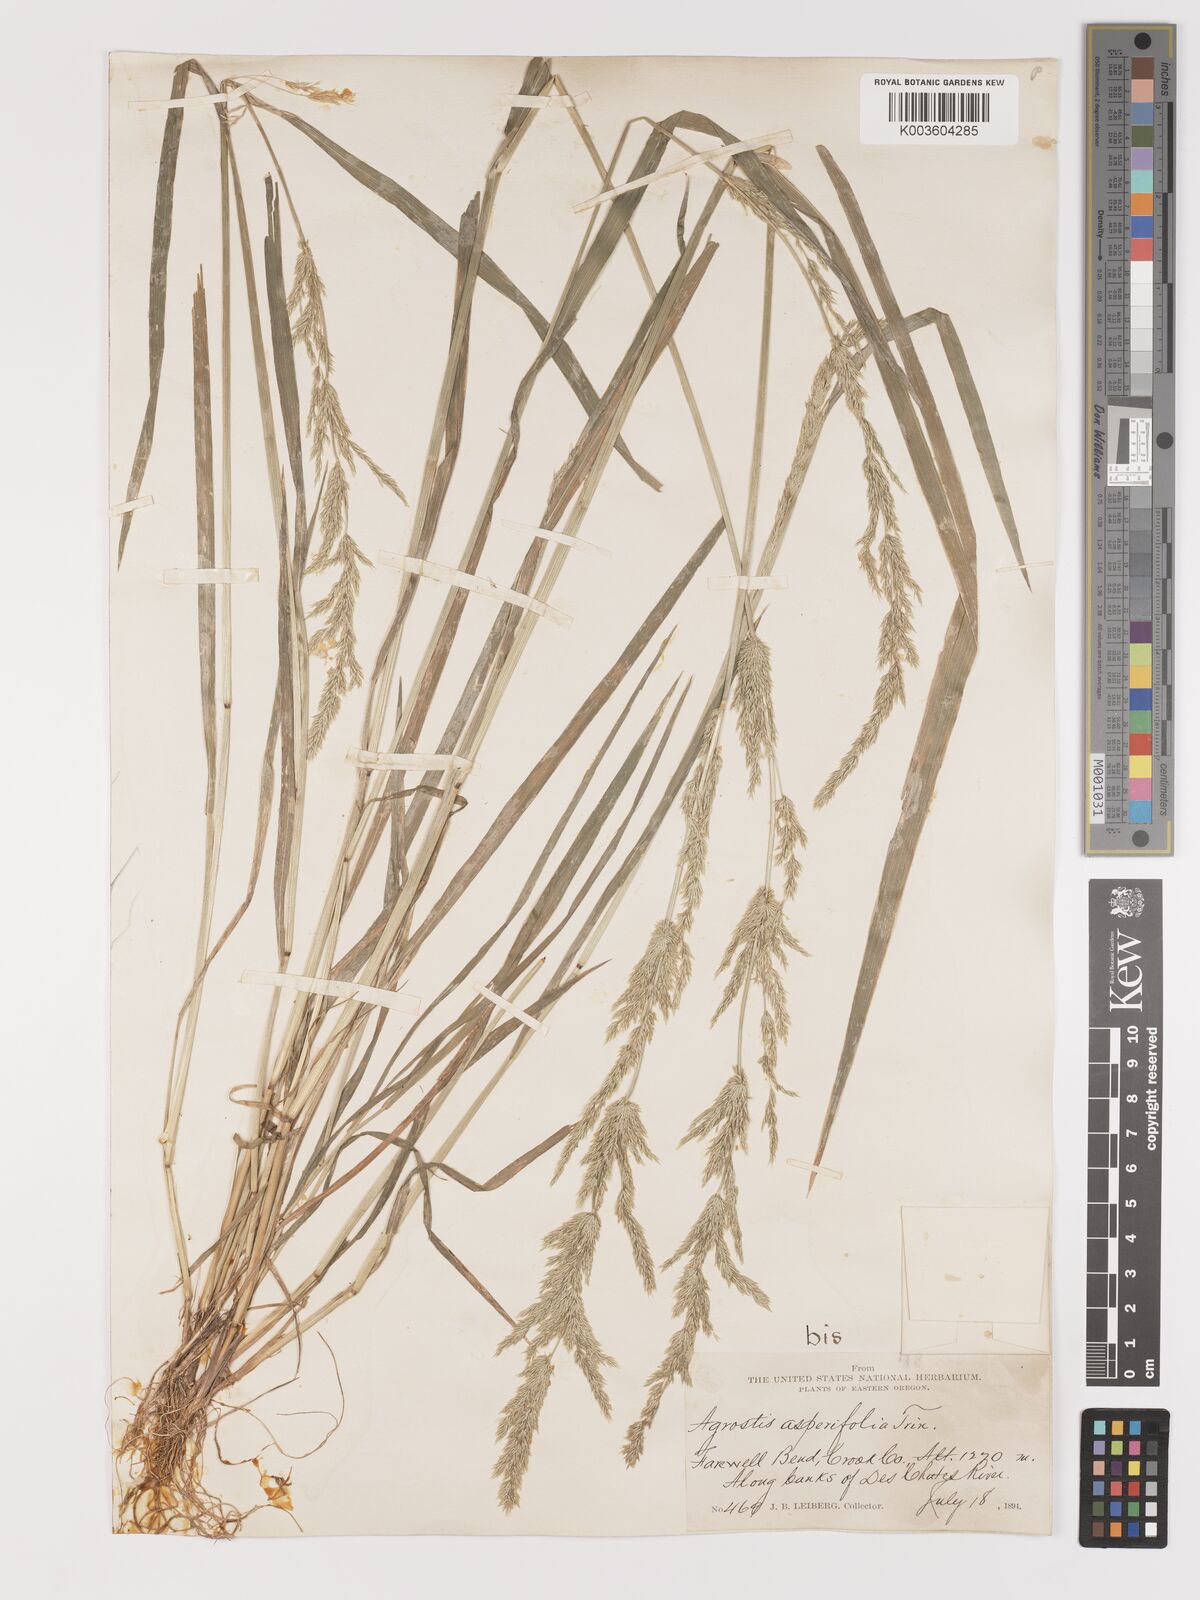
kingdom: Plantae
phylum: Tracheophyta
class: Liliopsida
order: Poales
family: Poaceae
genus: Agrostis
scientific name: Agrostis exarata
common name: Spike bent
